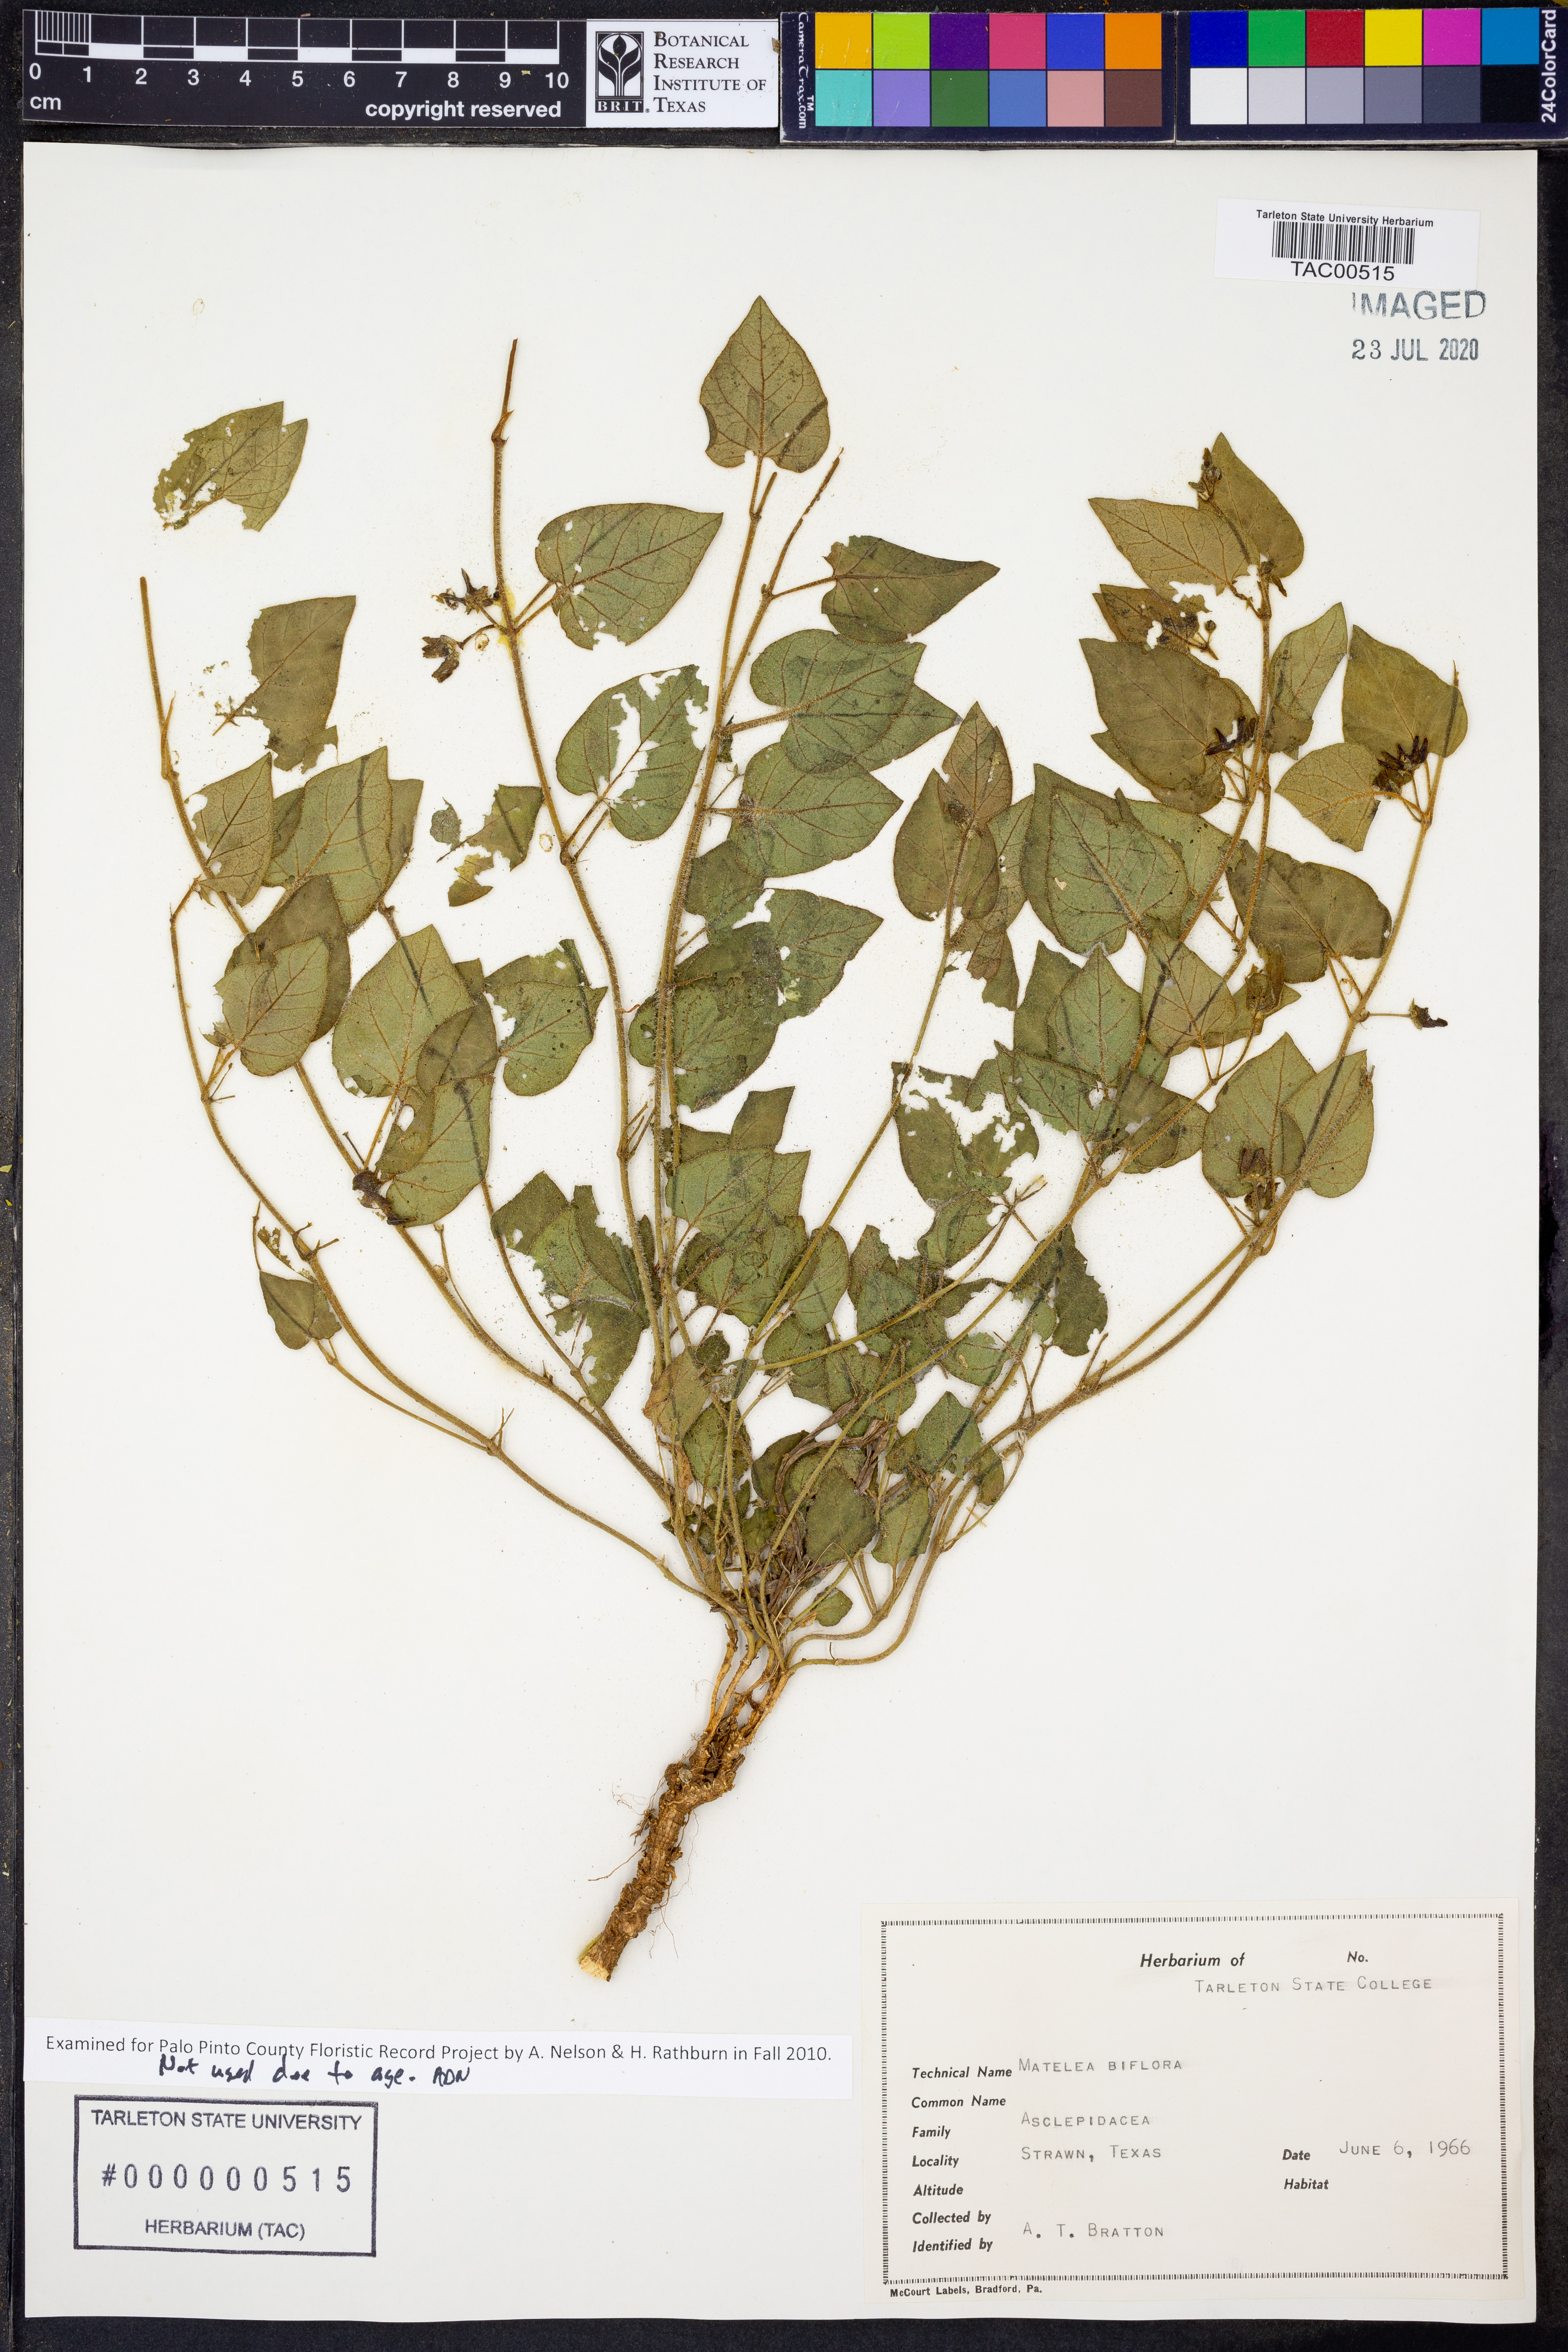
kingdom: Plantae
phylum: Tracheophyta
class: Magnoliopsida
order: Gentianales
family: Apocynaceae
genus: Chthamalia
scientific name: Chthamalia biflora
